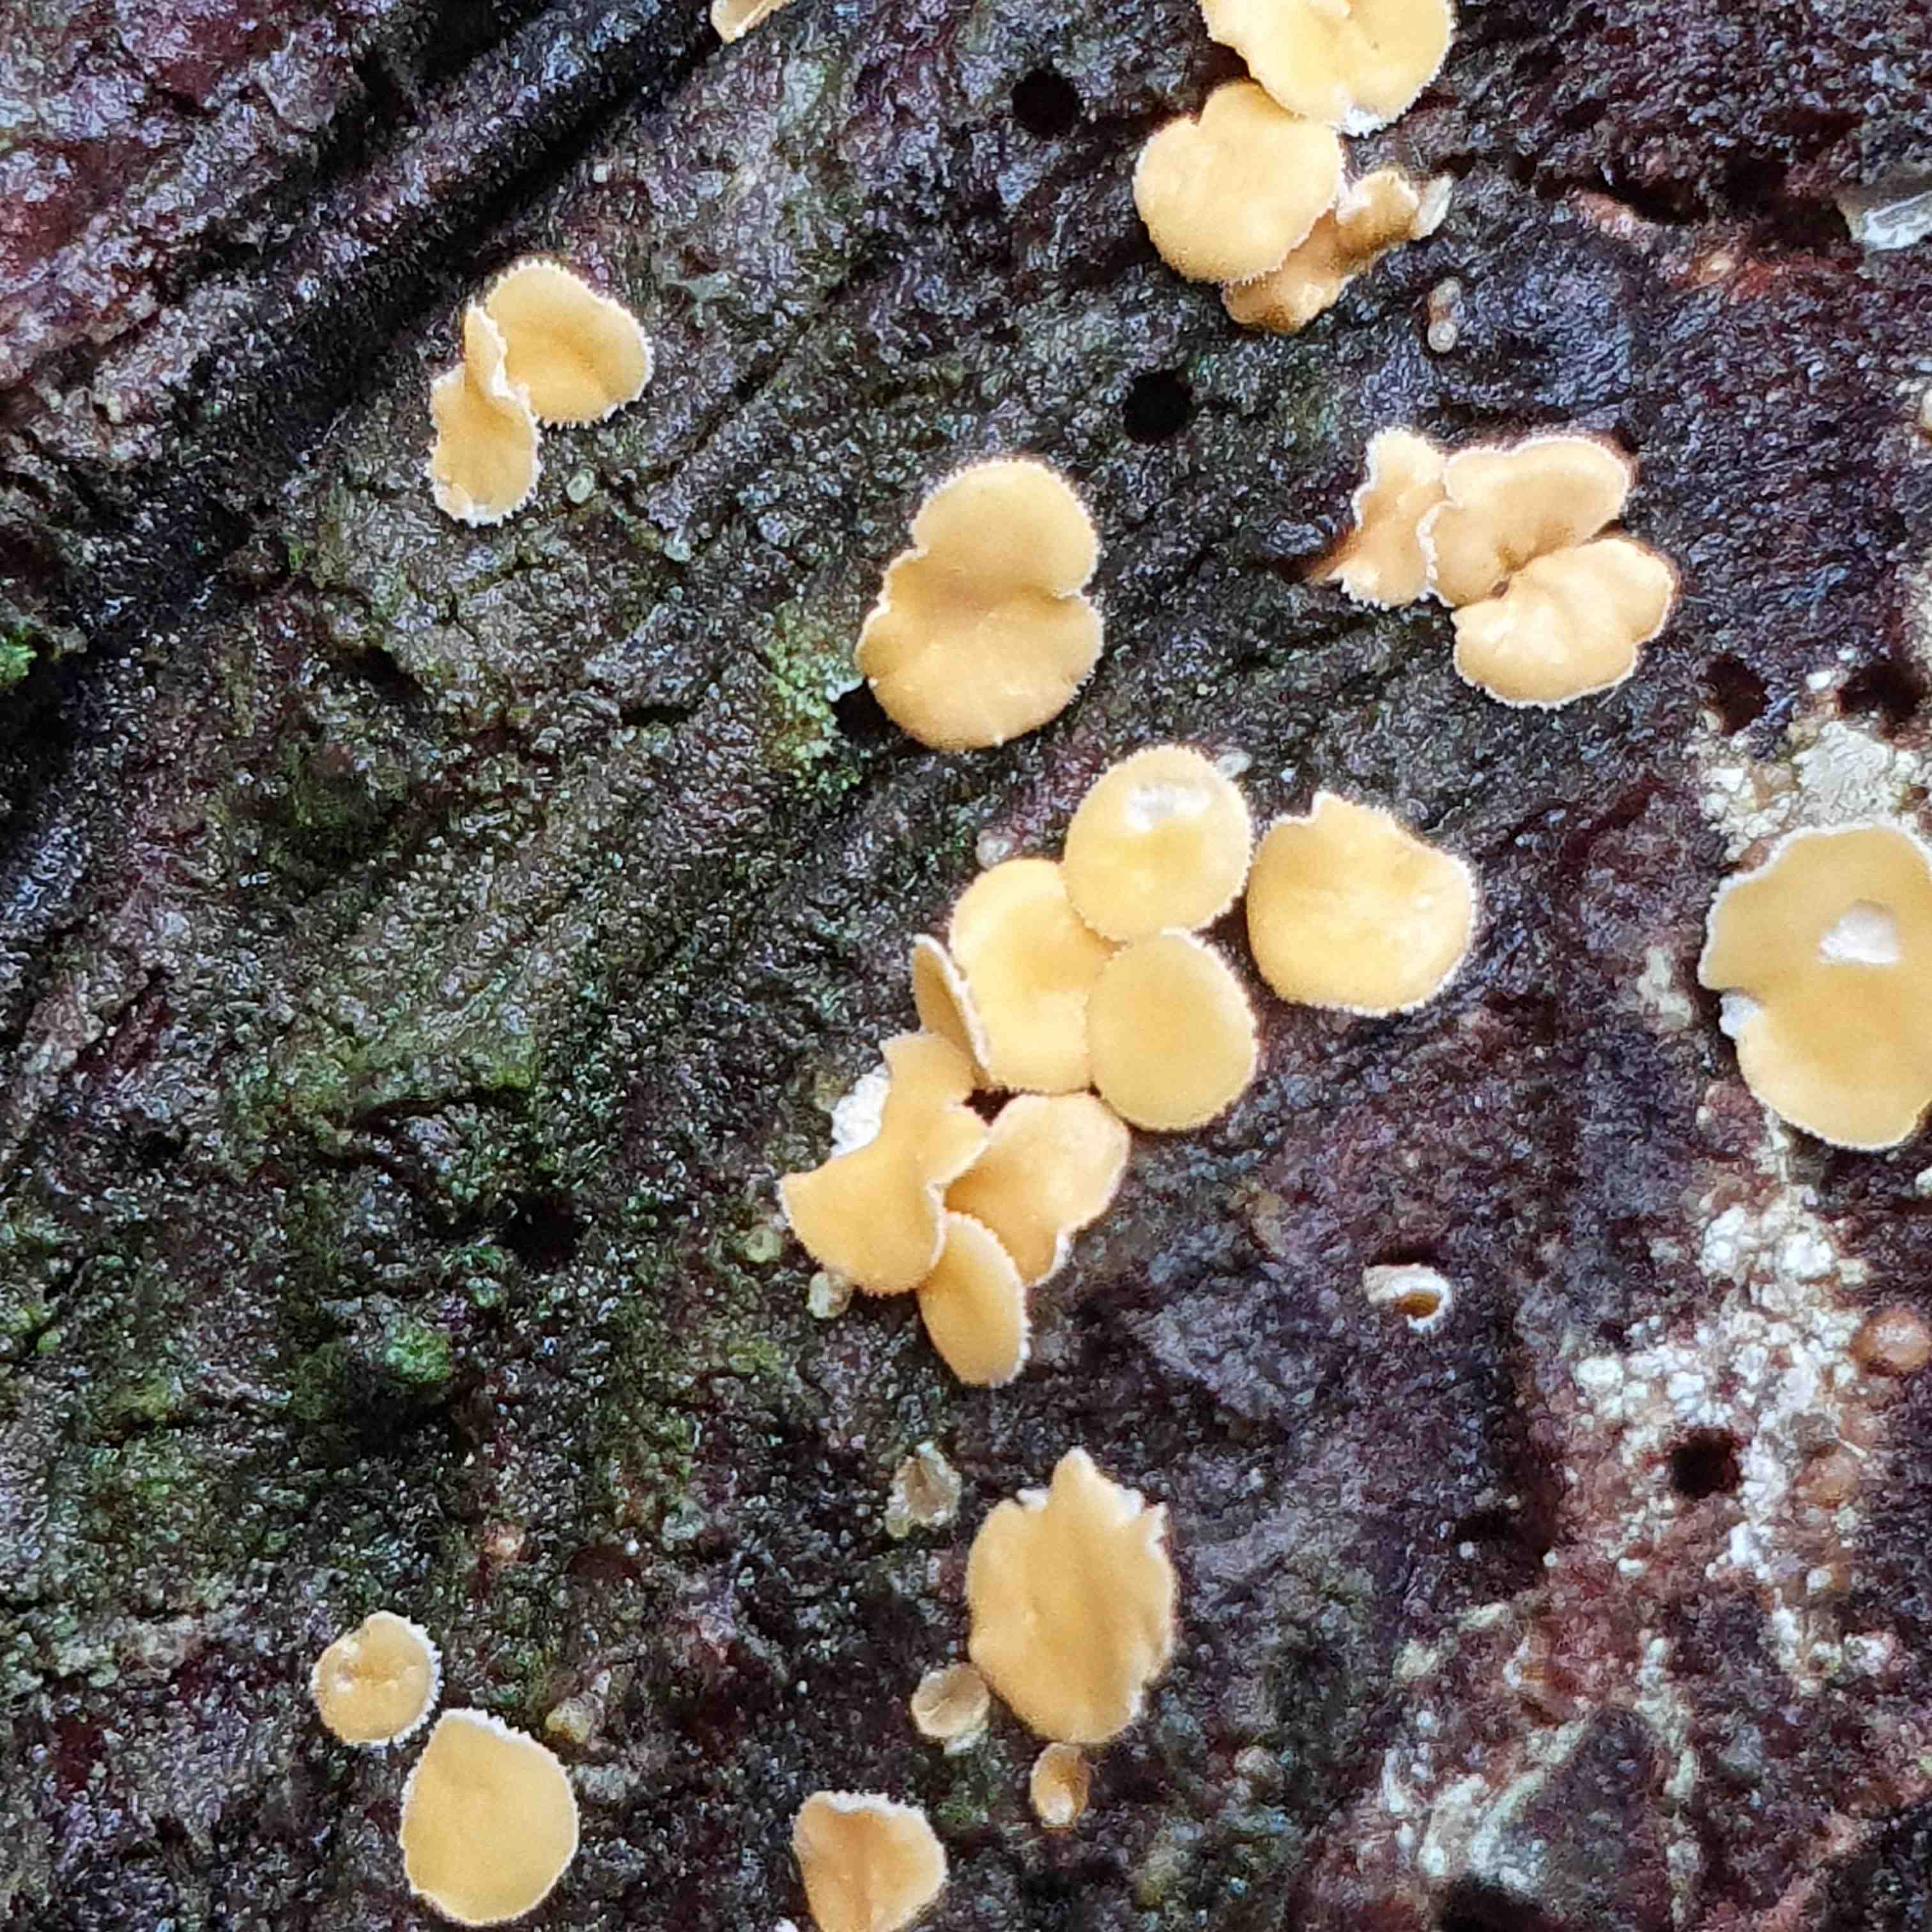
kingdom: Fungi
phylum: Ascomycota
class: Leotiomycetes
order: Helotiales
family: Lachnaceae
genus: Lachnellula
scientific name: Lachnellula
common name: frynseskive
